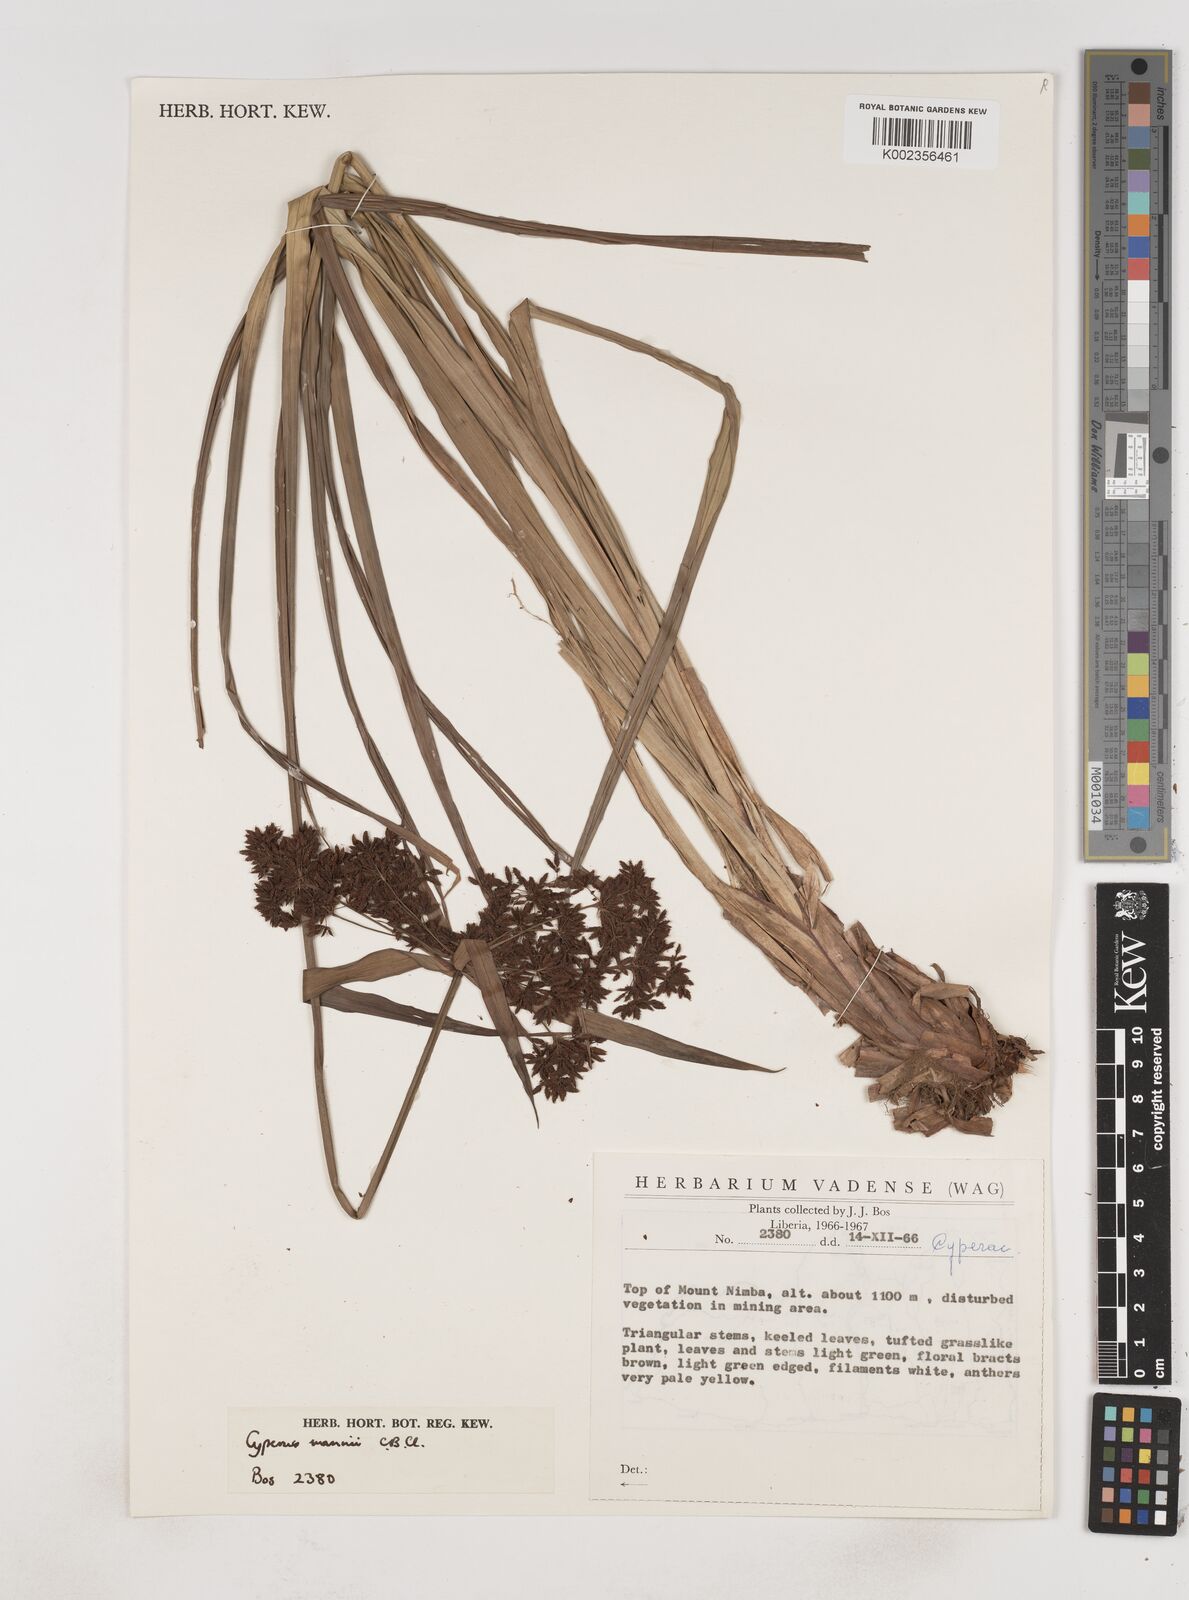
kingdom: Plantae
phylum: Tracheophyta
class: Liliopsida
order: Poales
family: Cyperaceae
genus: Cyperus
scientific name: Cyperus baronii
